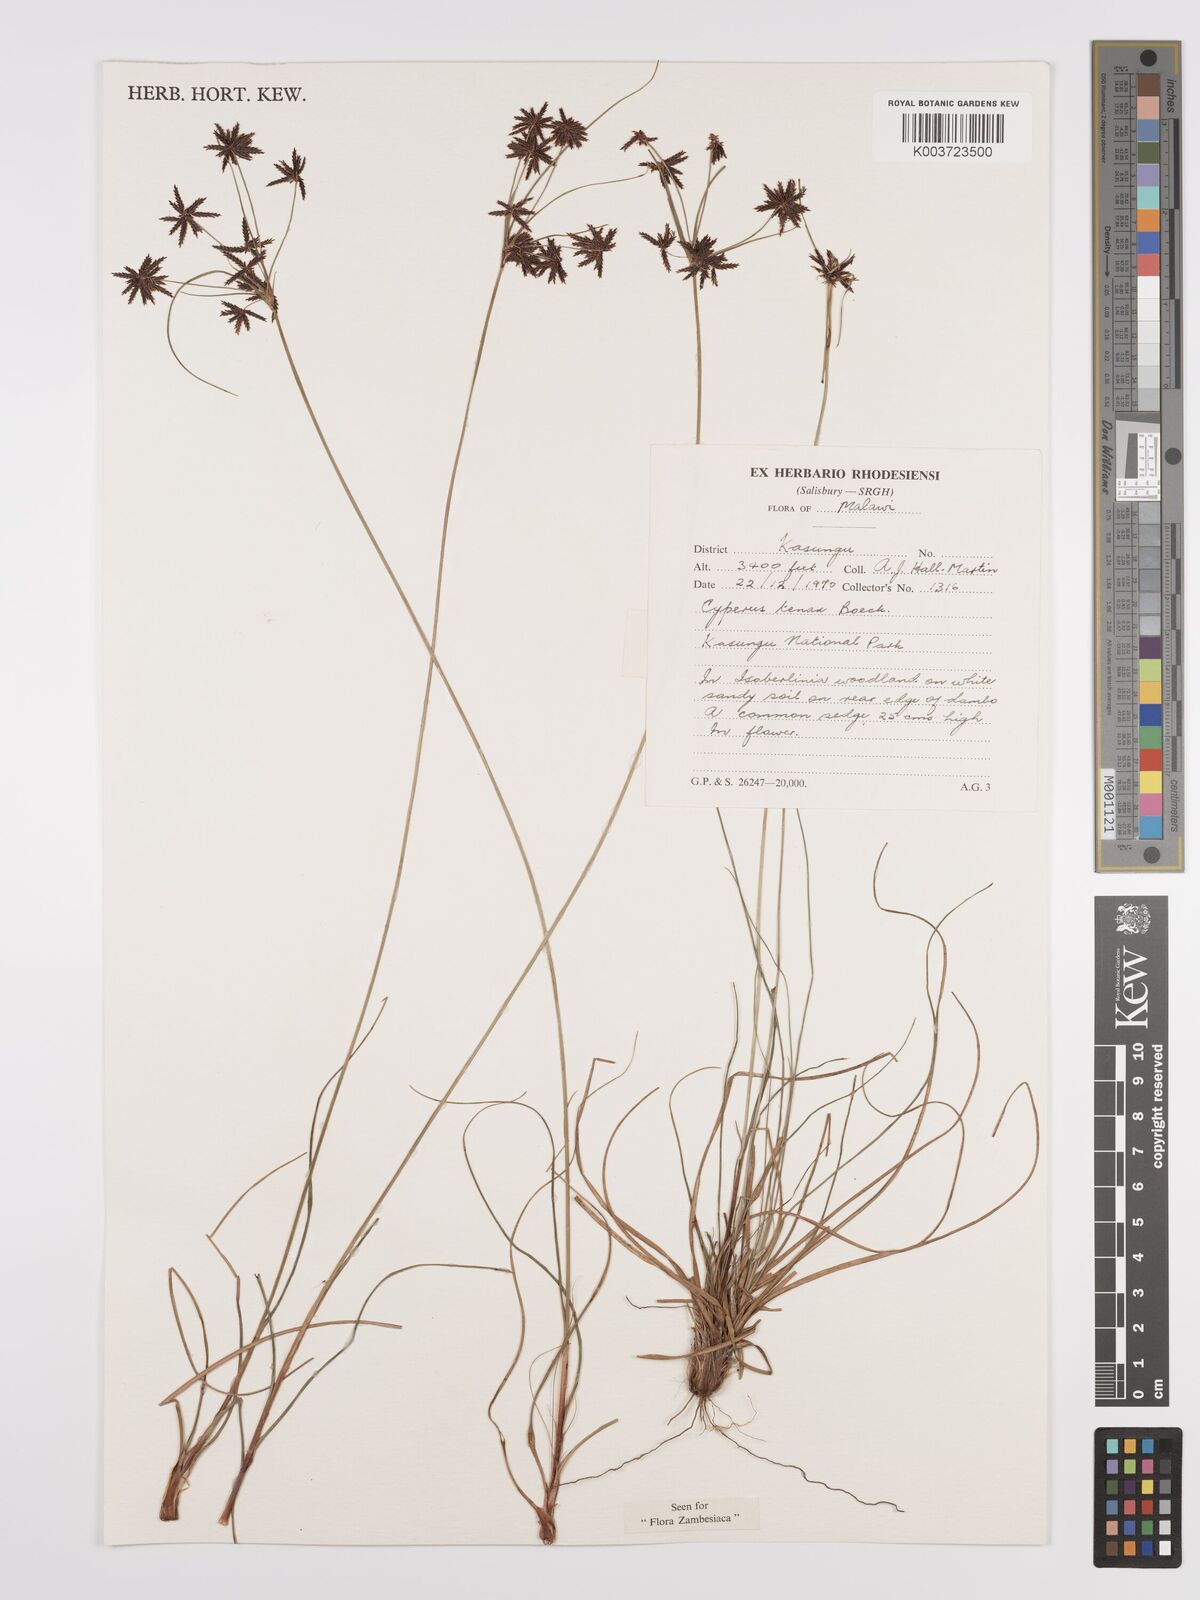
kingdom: Plantae
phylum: Tracheophyta
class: Liliopsida
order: Poales
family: Cyperaceae
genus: Cyperus
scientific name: Cyperus tenax
